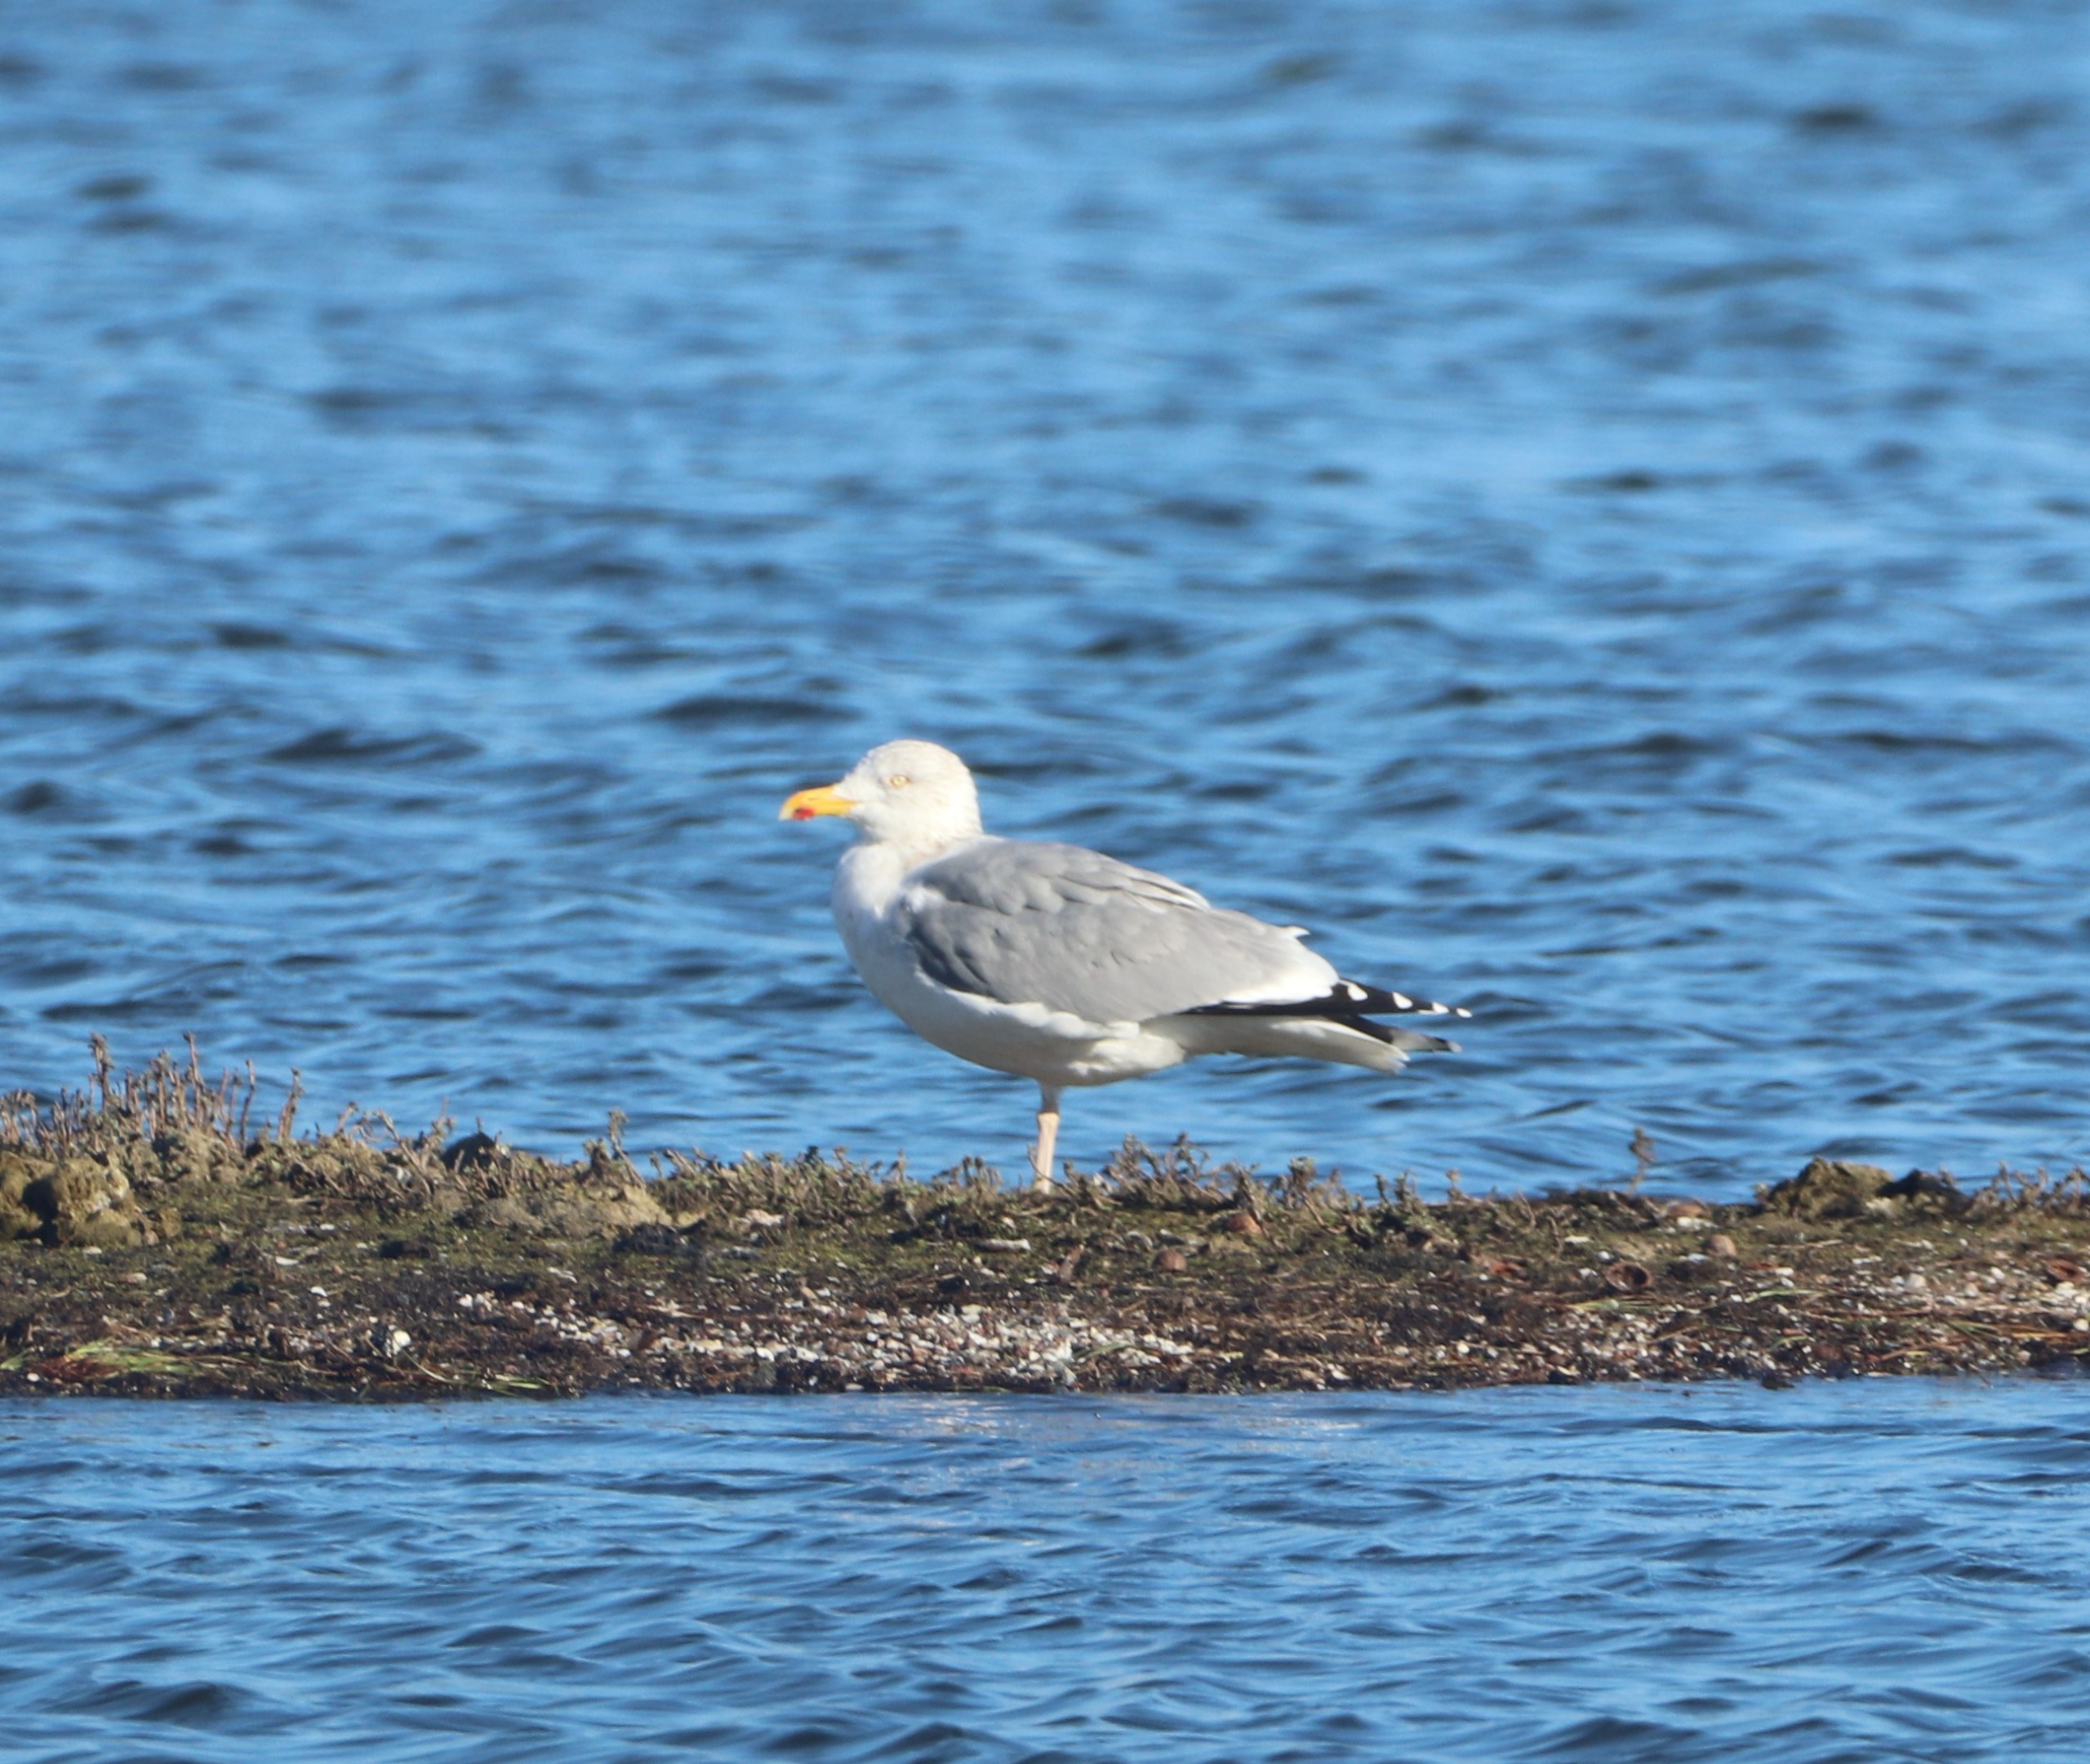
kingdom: Animalia
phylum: Chordata
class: Aves
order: Charadriiformes
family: Laridae
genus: Larus
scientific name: Larus argentatus
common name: Sølvmåge
